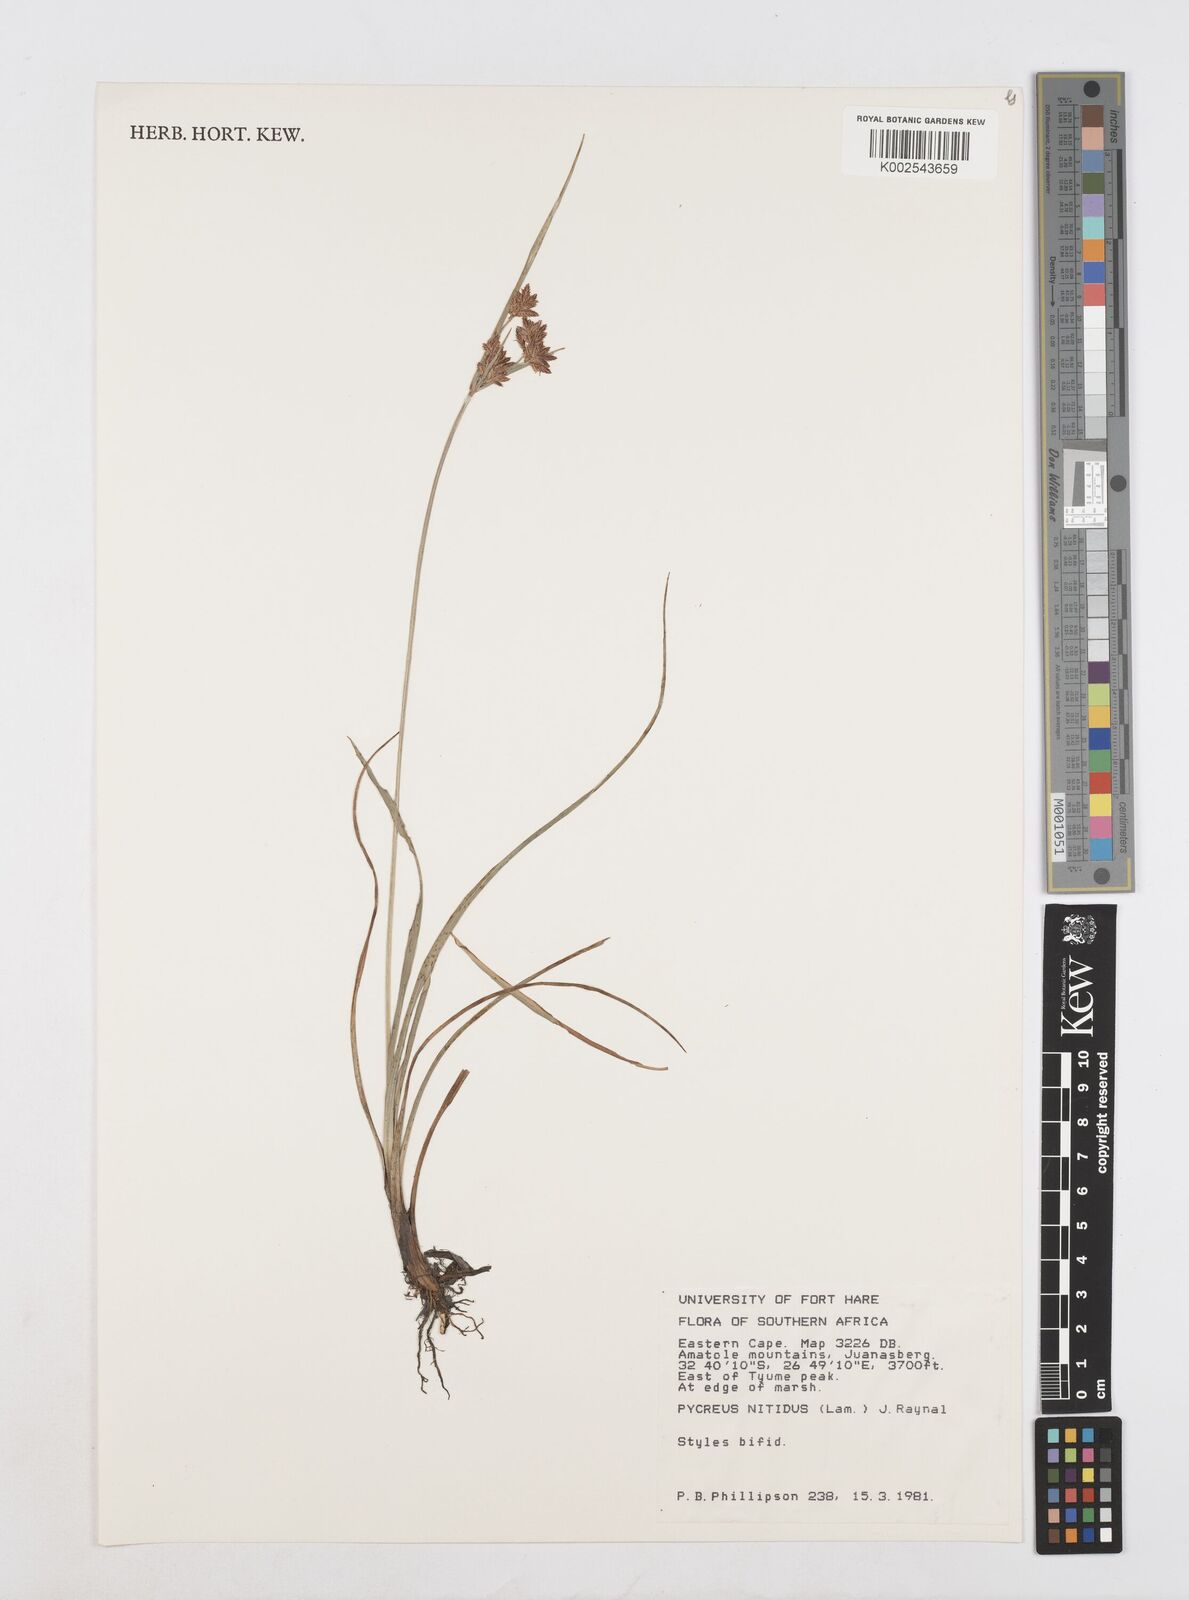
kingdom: Plantae
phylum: Tracheophyta
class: Liliopsida
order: Poales
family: Cyperaceae
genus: Cyperus
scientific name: Cyperus nitidus
